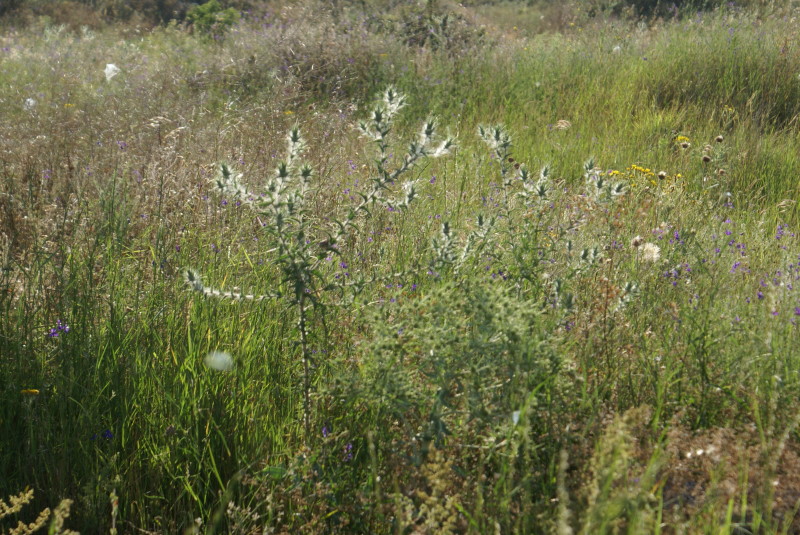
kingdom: Plantae
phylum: Tracheophyta
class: Magnoliopsida
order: Asterales
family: Asteraceae
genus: Carthamus
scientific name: Carthamus lanatus
